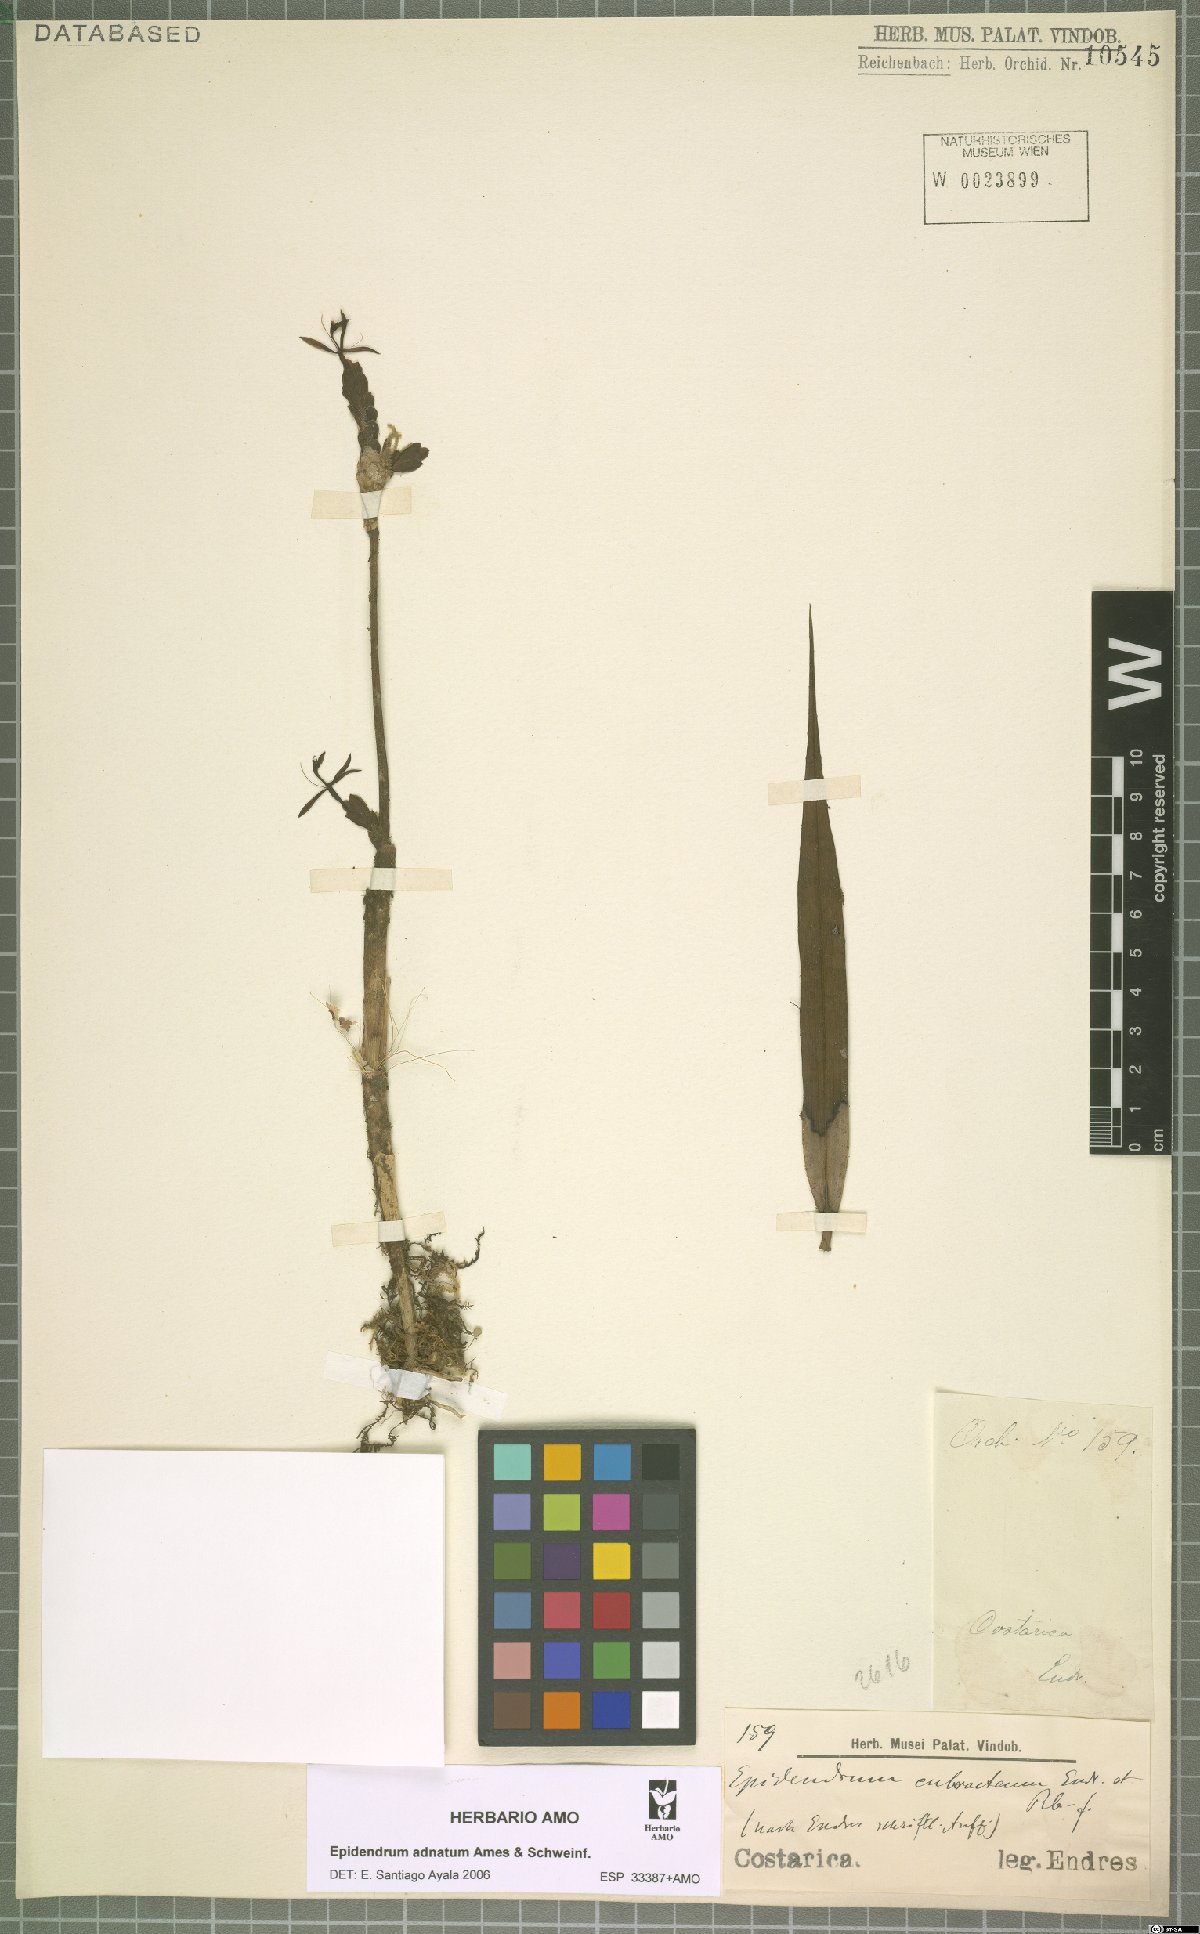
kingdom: Plantae
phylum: Tracheophyta
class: Liliopsida
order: Asparagales
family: Orchidaceae
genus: Epidendrum
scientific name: Epidendrum adnatum
